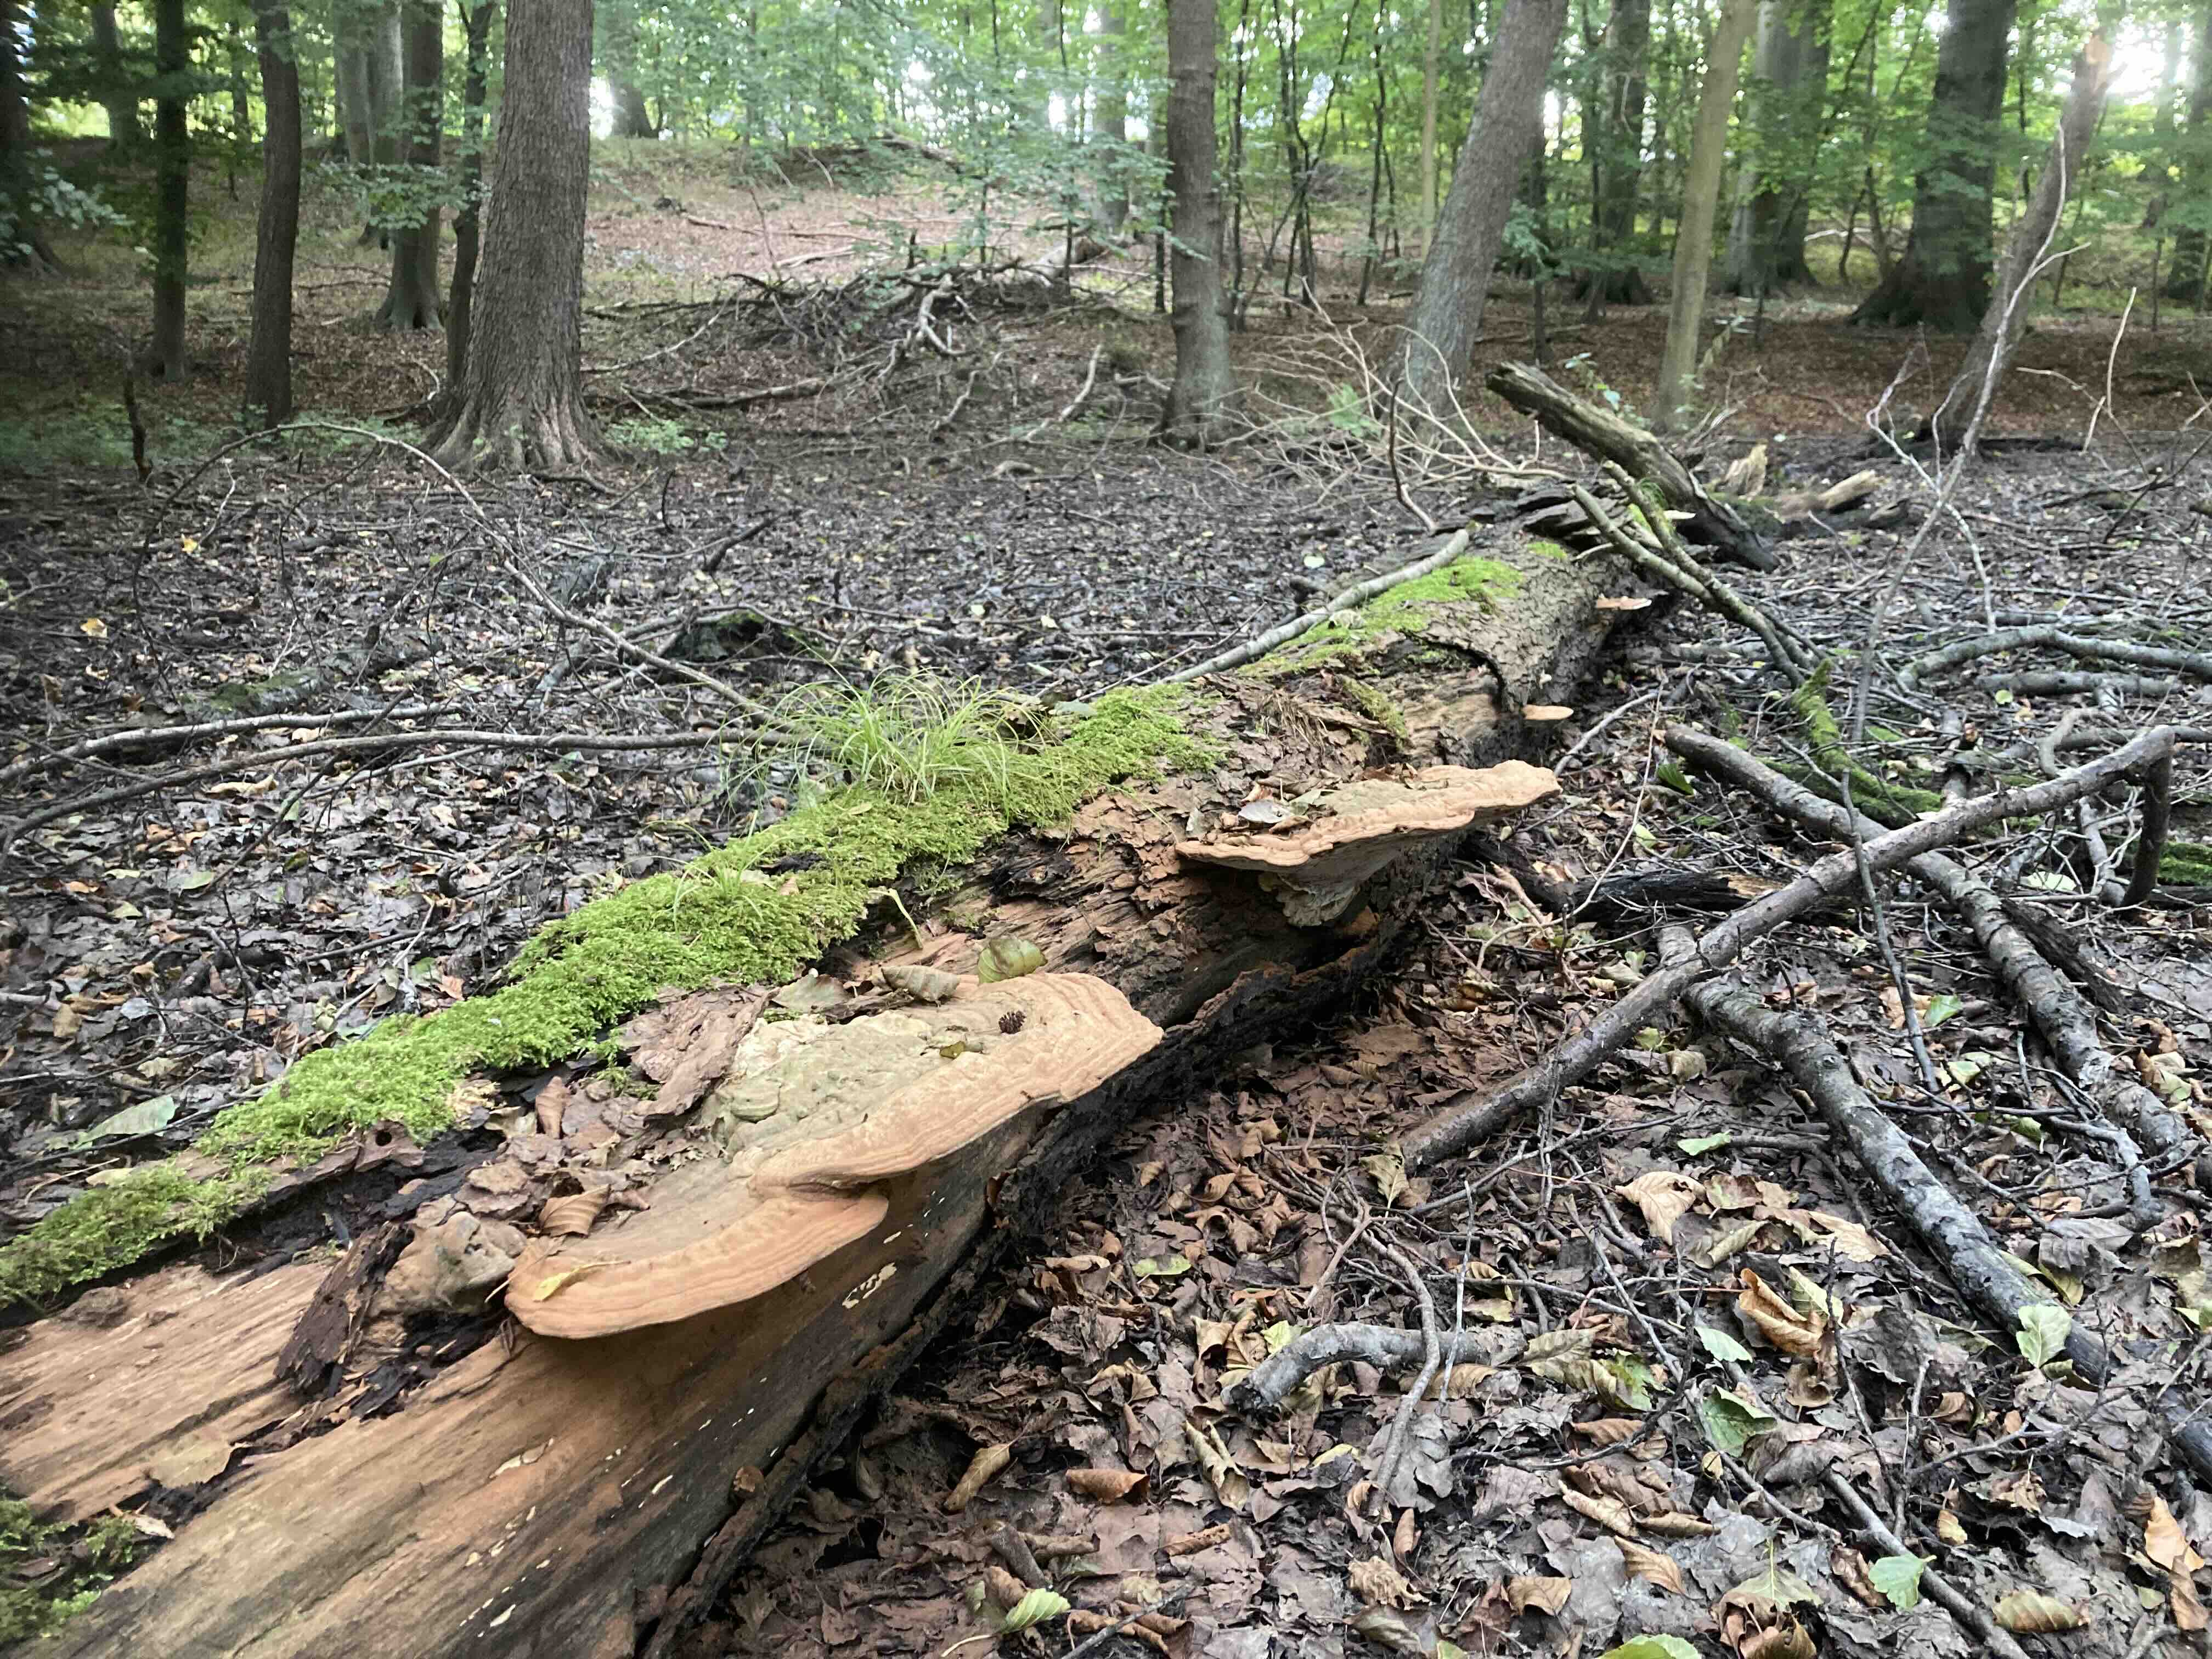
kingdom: Fungi
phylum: Basidiomycota
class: Agaricomycetes
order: Polyporales
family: Polyporaceae
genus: Ganoderma
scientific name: Ganoderma applanatum
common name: flad lakporesvamp
